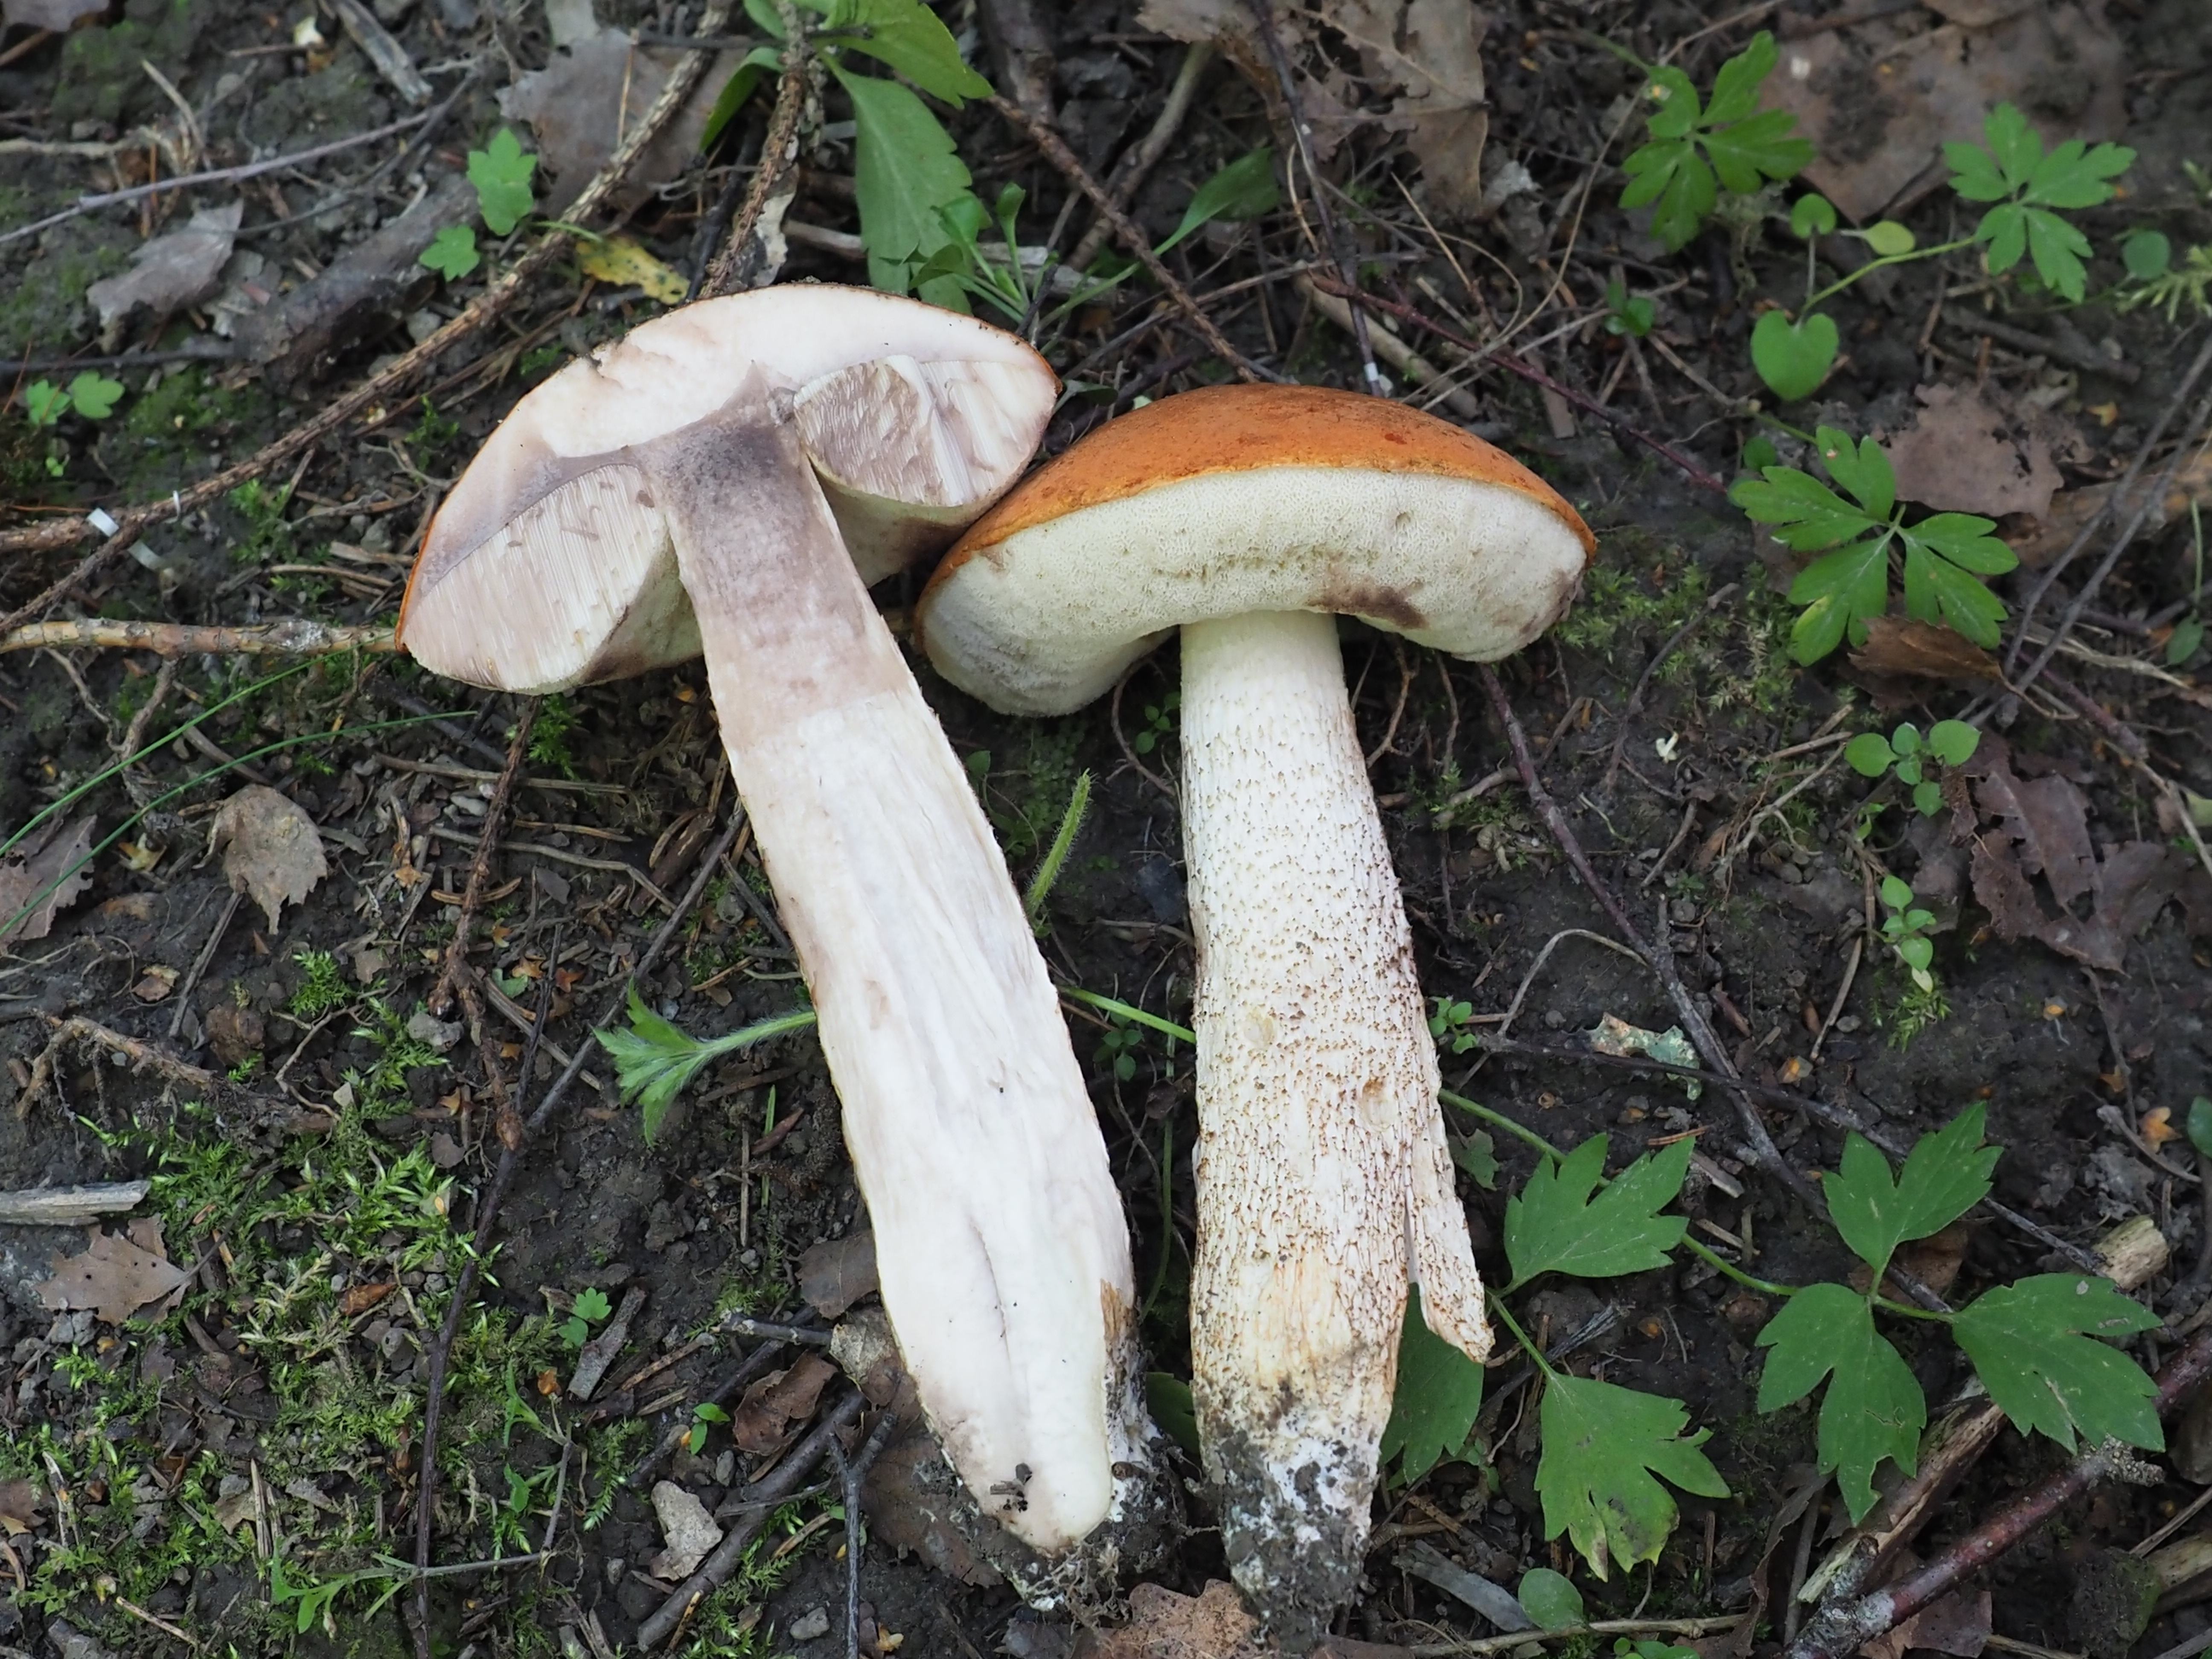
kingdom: Fungi
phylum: Basidiomycota
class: Agaricomycetes
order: Boletales
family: Boletaceae
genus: Leccinum
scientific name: Leccinum albostipitatum
